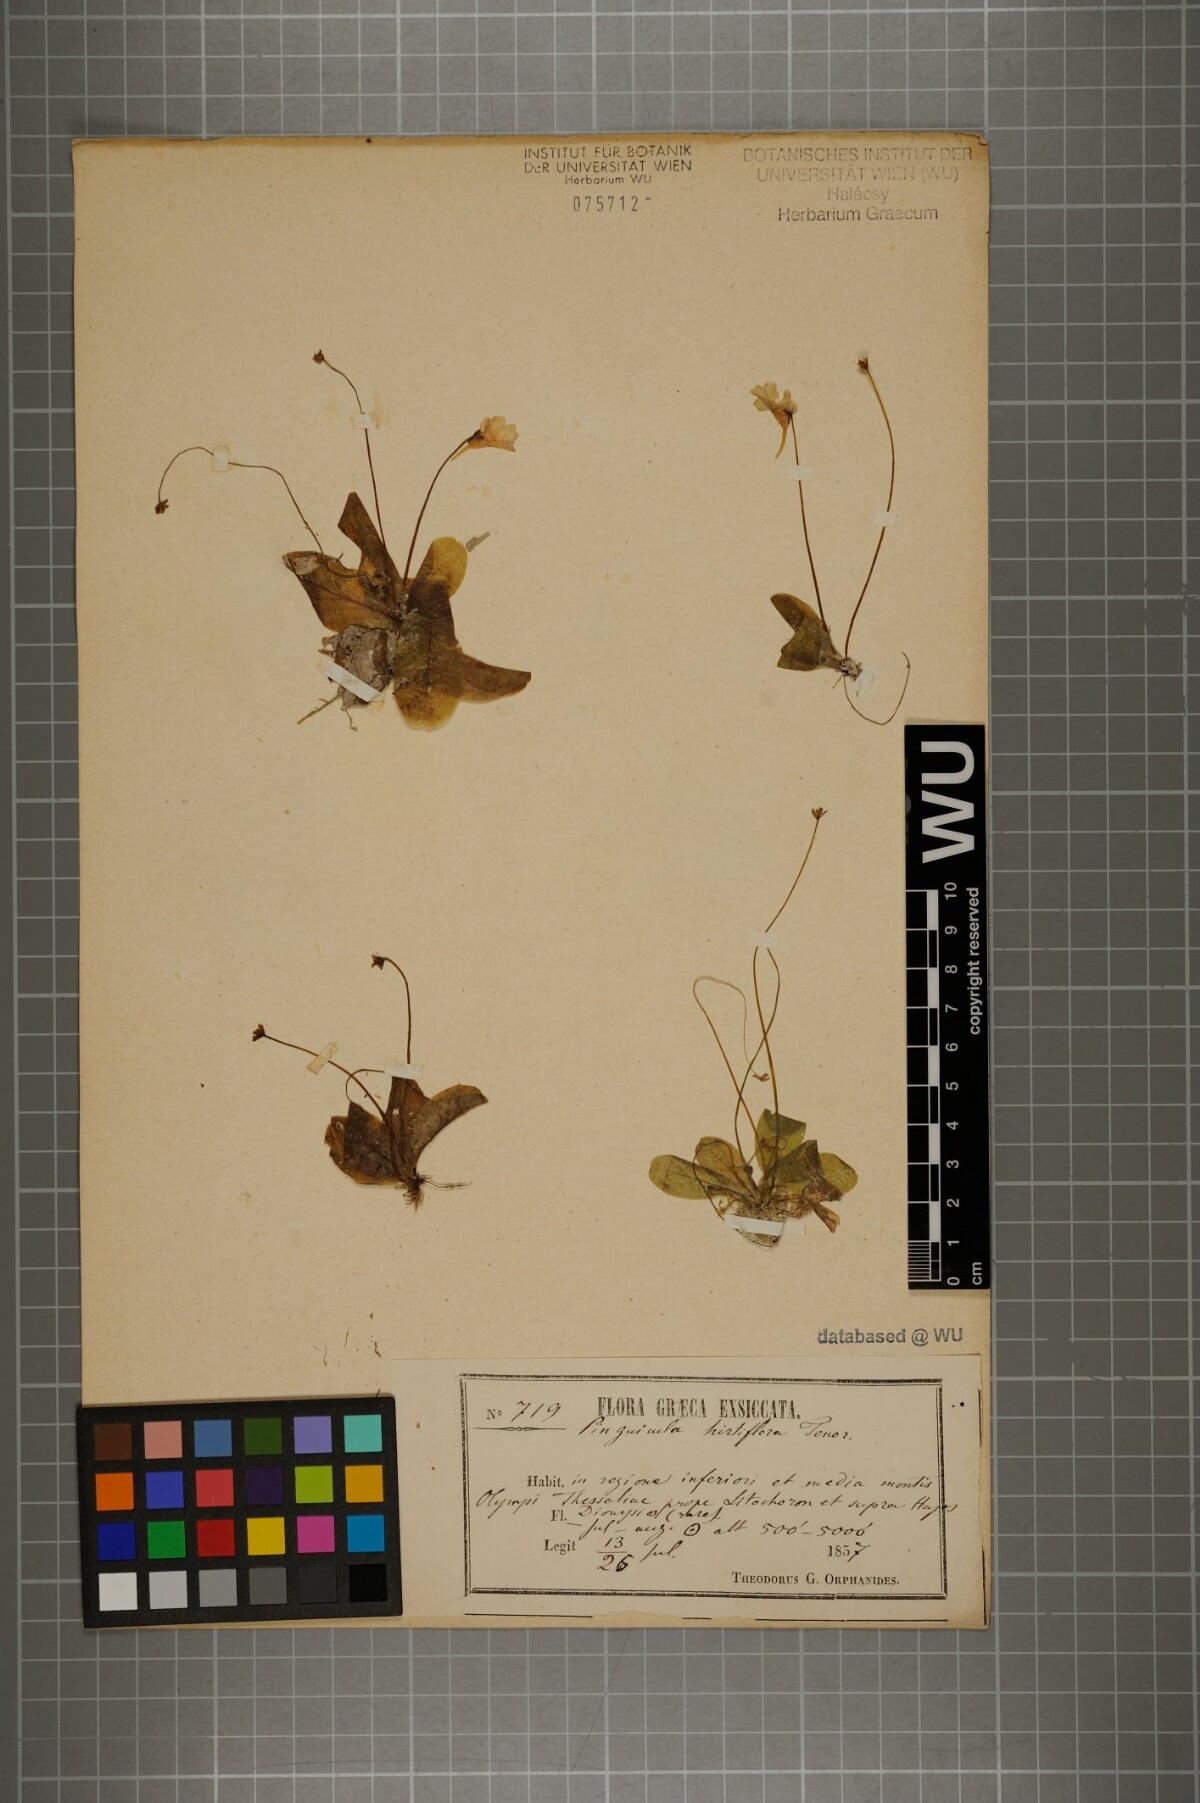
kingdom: Plantae
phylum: Tracheophyta
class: Magnoliopsida
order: Lamiales
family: Lentibulariaceae
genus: Pinguicula
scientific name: Pinguicula crystallina
